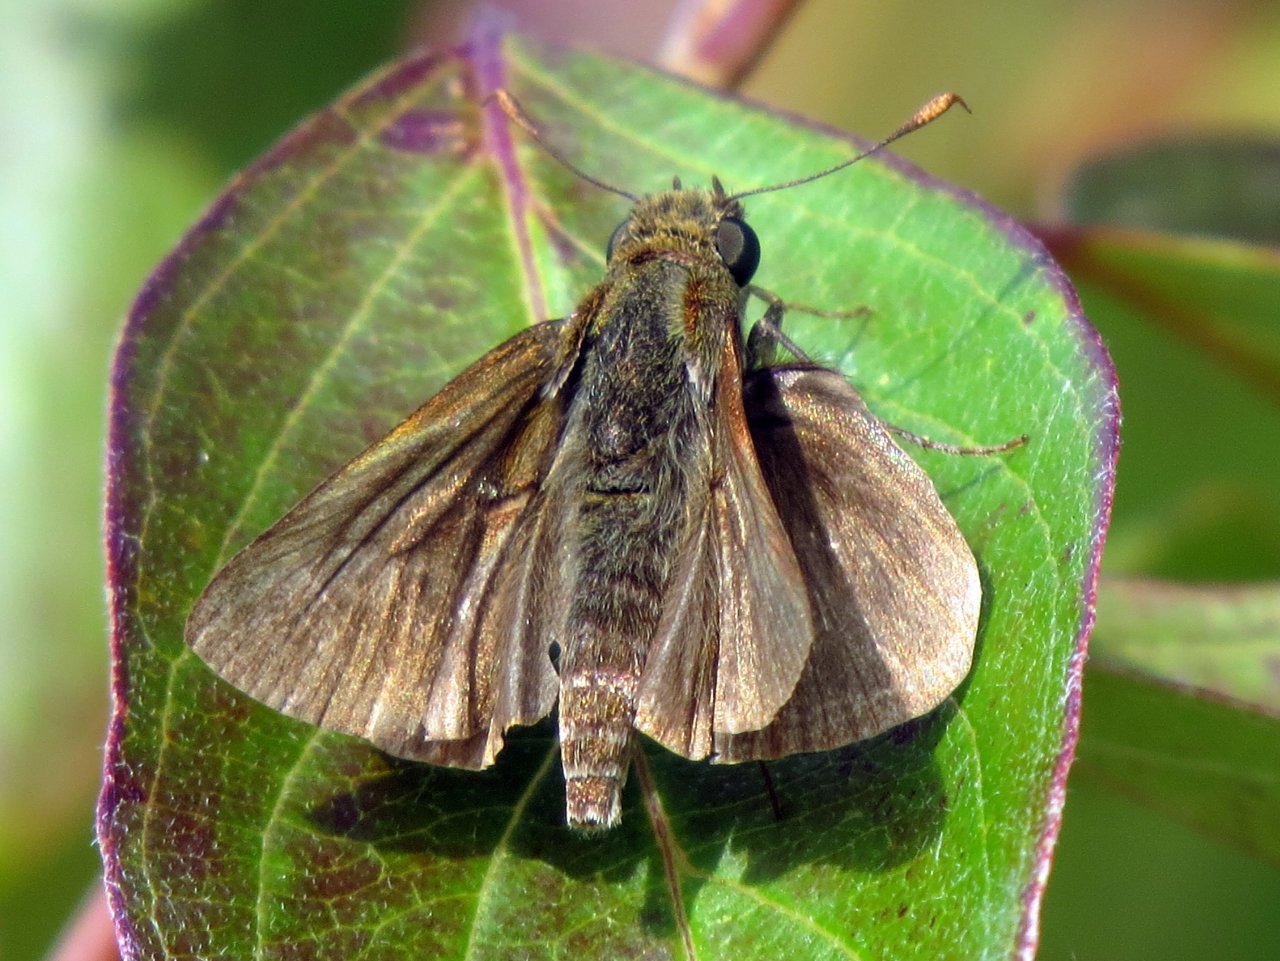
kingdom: Animalia
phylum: Arthropoda
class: Insecta
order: Lepidoptera
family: Hesperiidae
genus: Euphyes
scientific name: Euphyes vestris
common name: Dun Skipper
